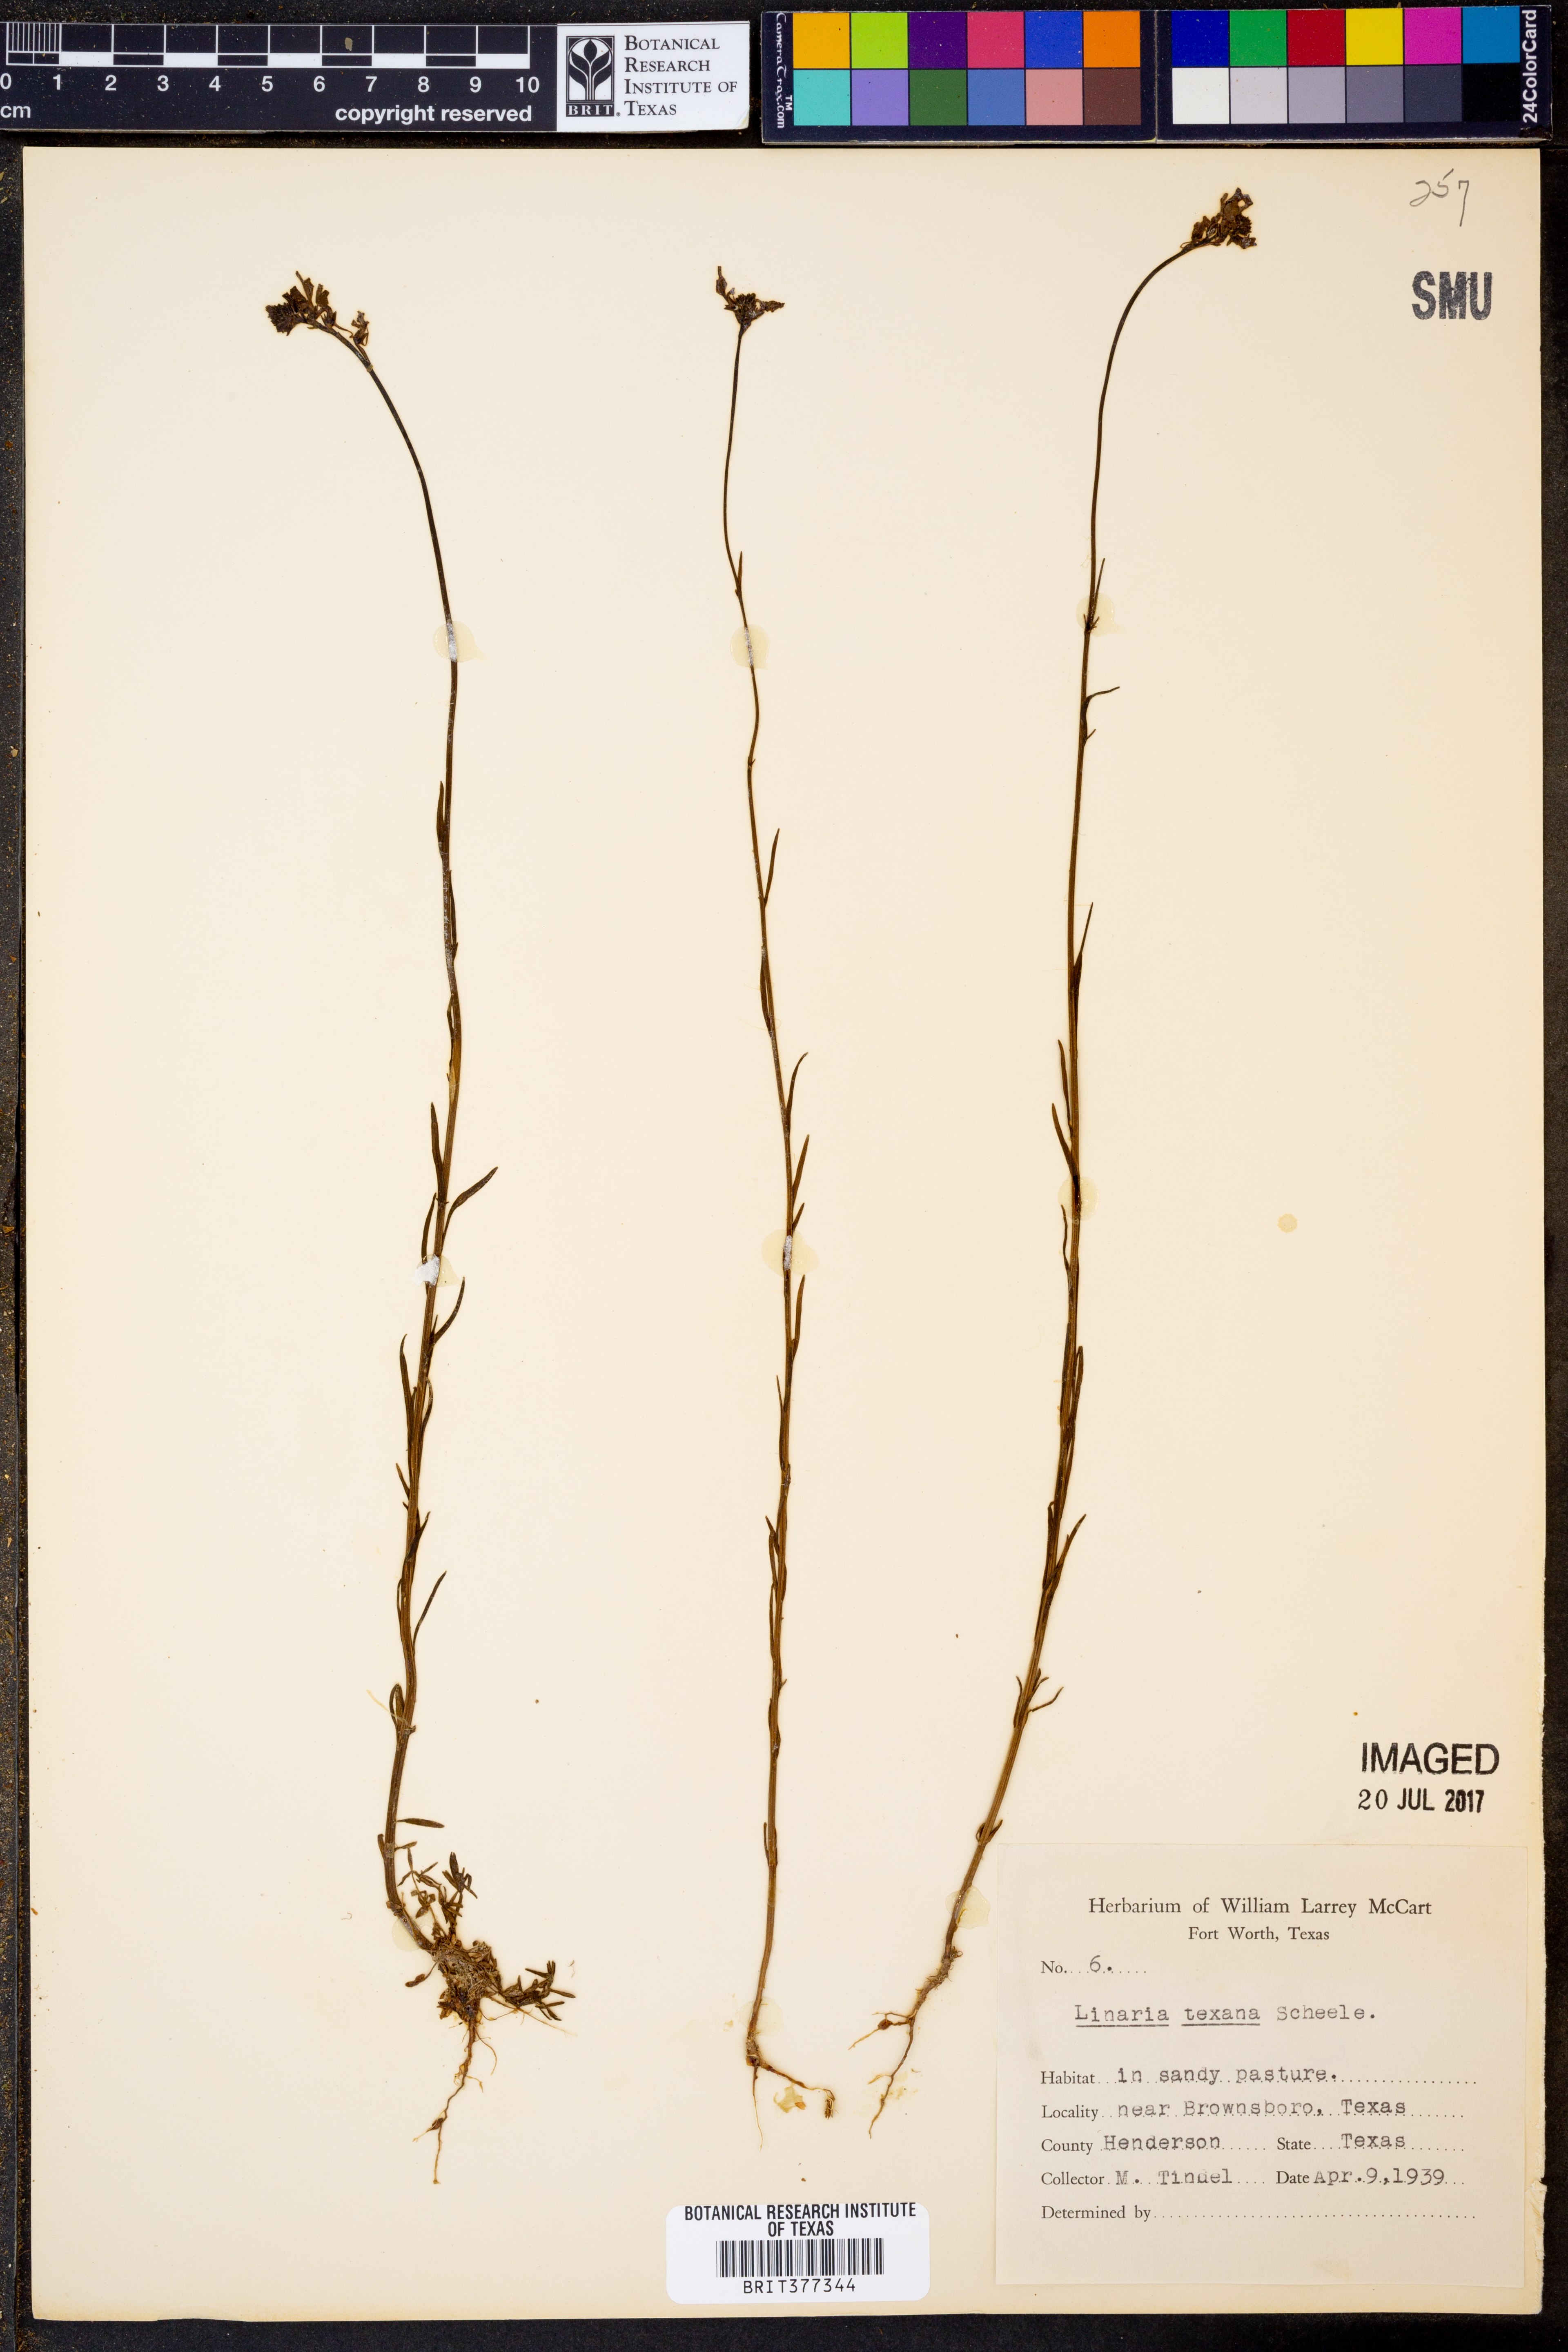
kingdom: Plantae
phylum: Tracheophyta
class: Magnoliopsida
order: Lamiales
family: Plantaginaceae
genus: Nuttallanthus
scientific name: Nuttallanthus texanus
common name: Texas toadflax
